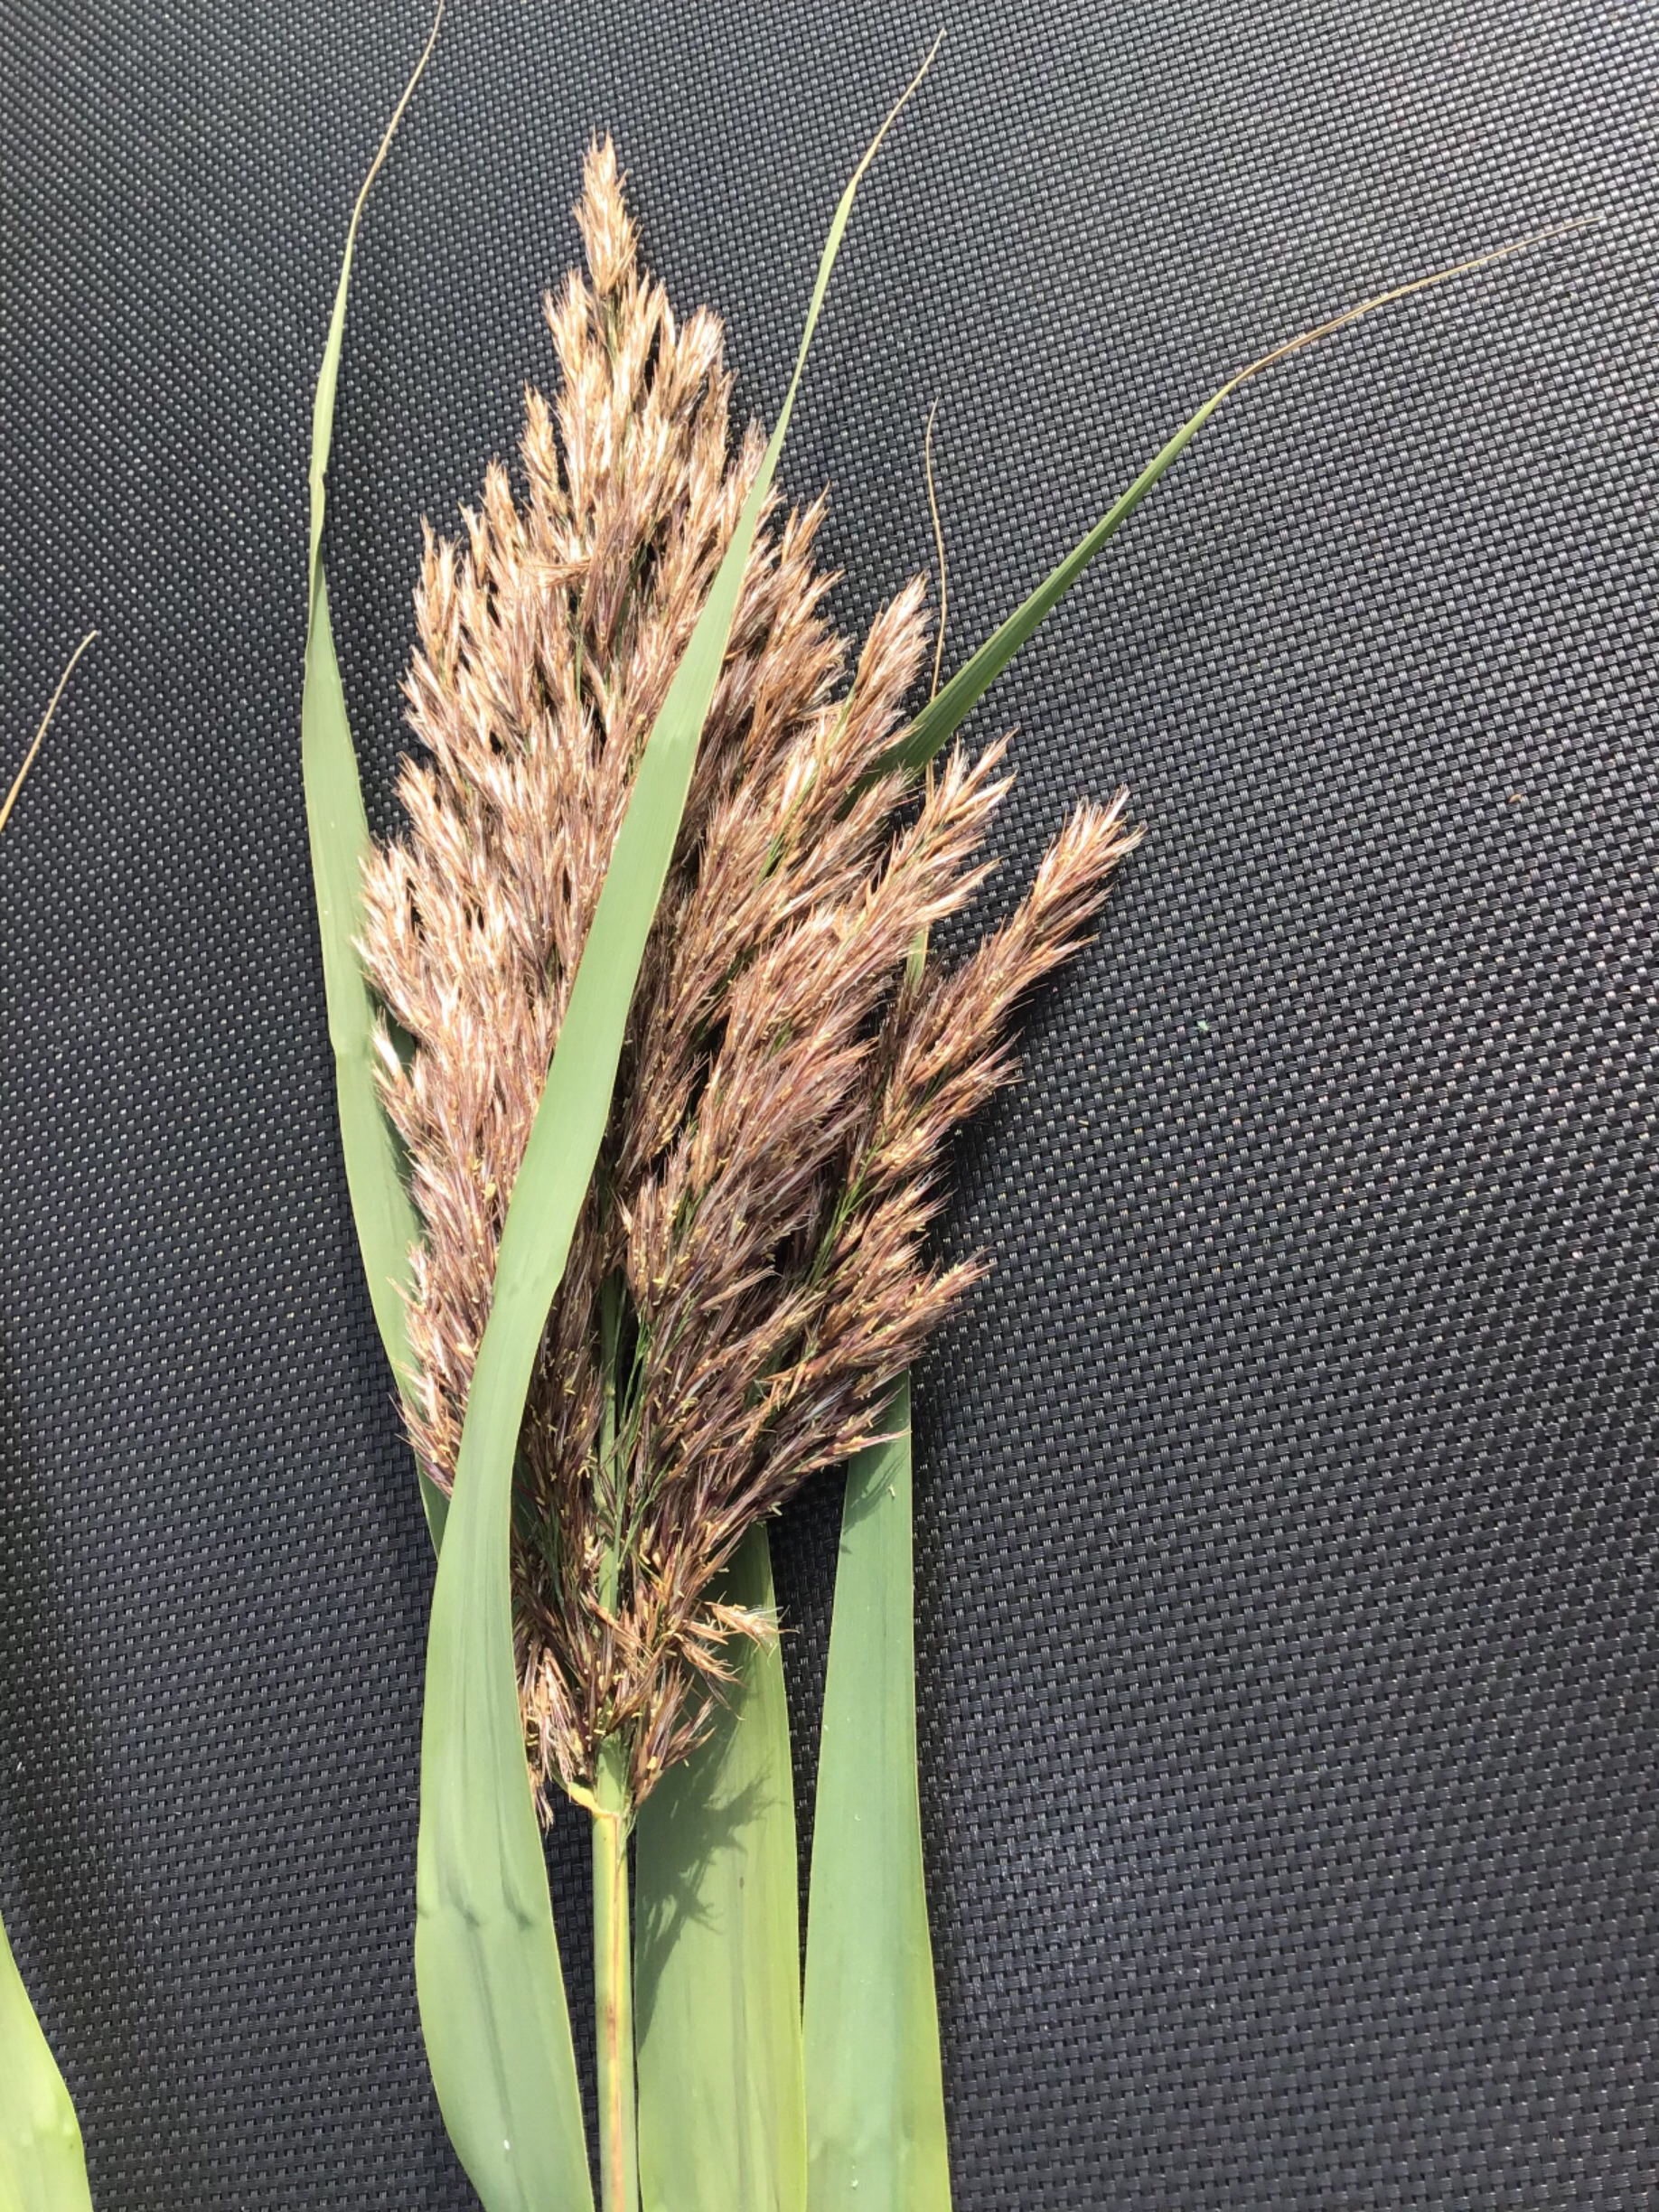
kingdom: Plantae
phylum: Tracheophyta
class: Liliopsida
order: Poales
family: Poaceae
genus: Phragmites
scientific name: Phragmites australis
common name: Tagrør
